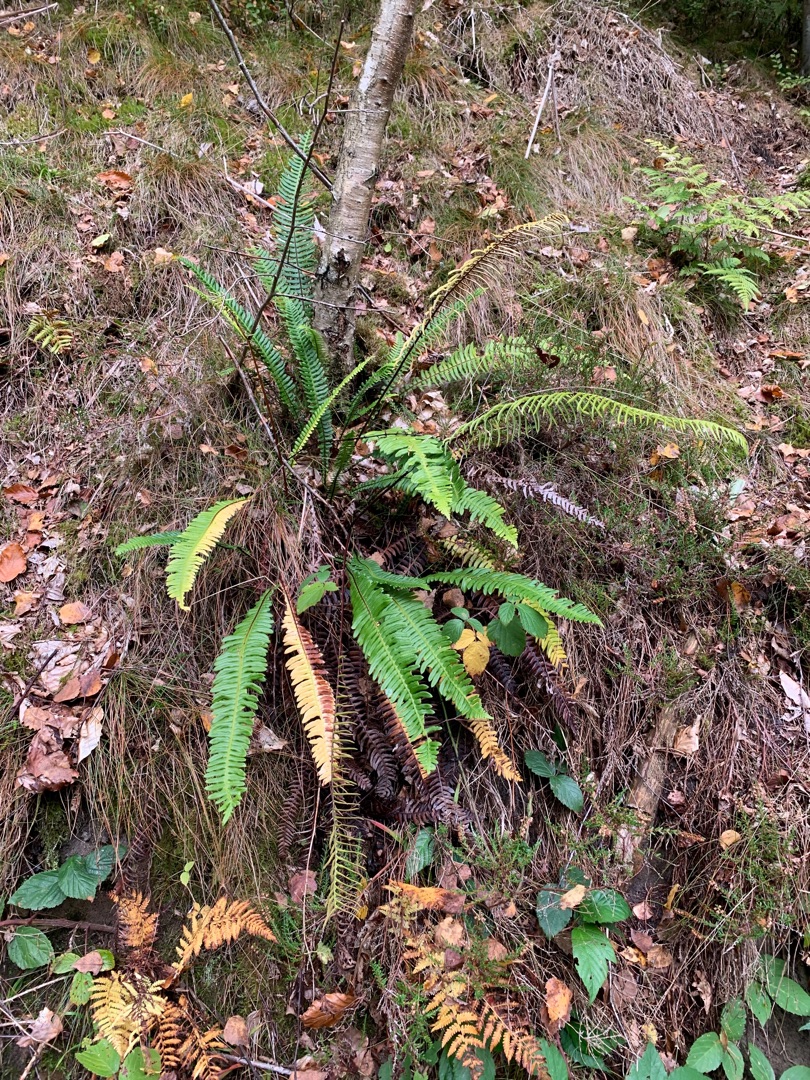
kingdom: Plantae
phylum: Tracheophyta
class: Polypodiopsida
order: Polypodiales
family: Blechnaceae
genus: Struthiopteris
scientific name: Struthiopteris spicant
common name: Kambregne
